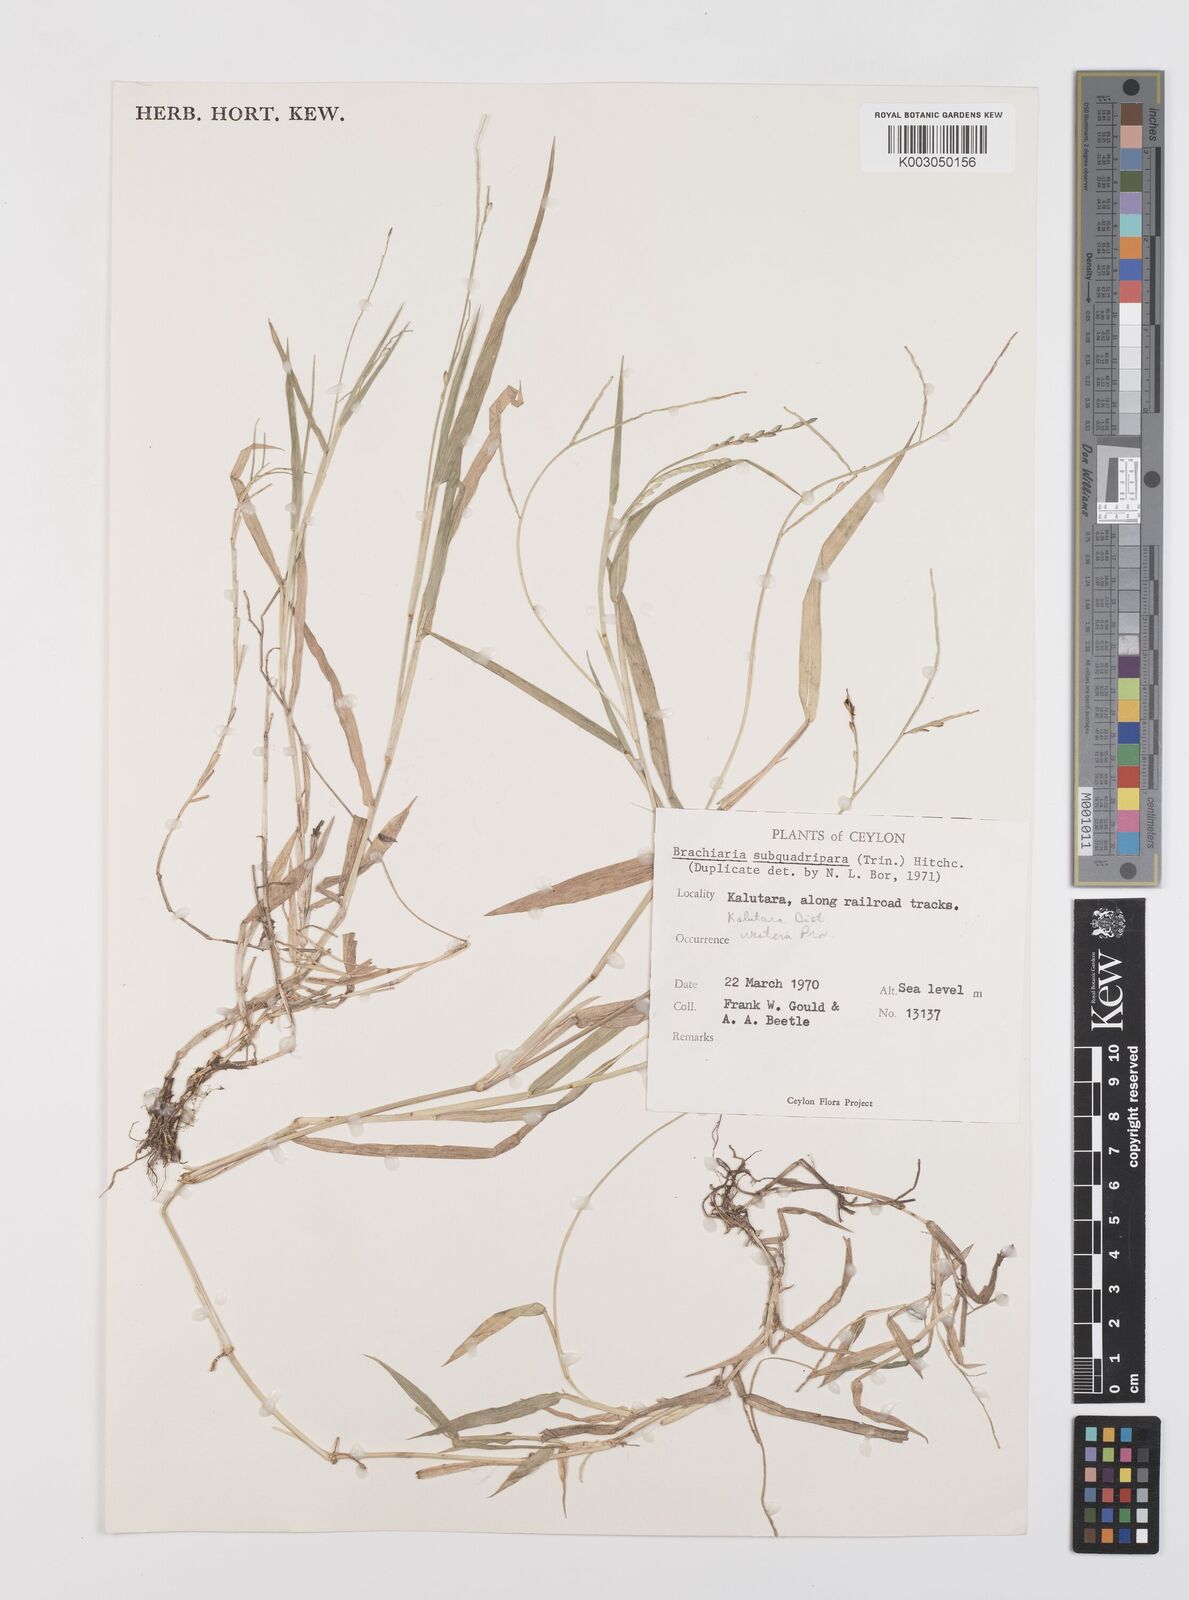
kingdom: Plantae
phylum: Tracheophyta
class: Liliopsida
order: Poales
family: Poaceae
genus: Urochloa
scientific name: Urochloa subquadripara
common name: Armgrass millet
